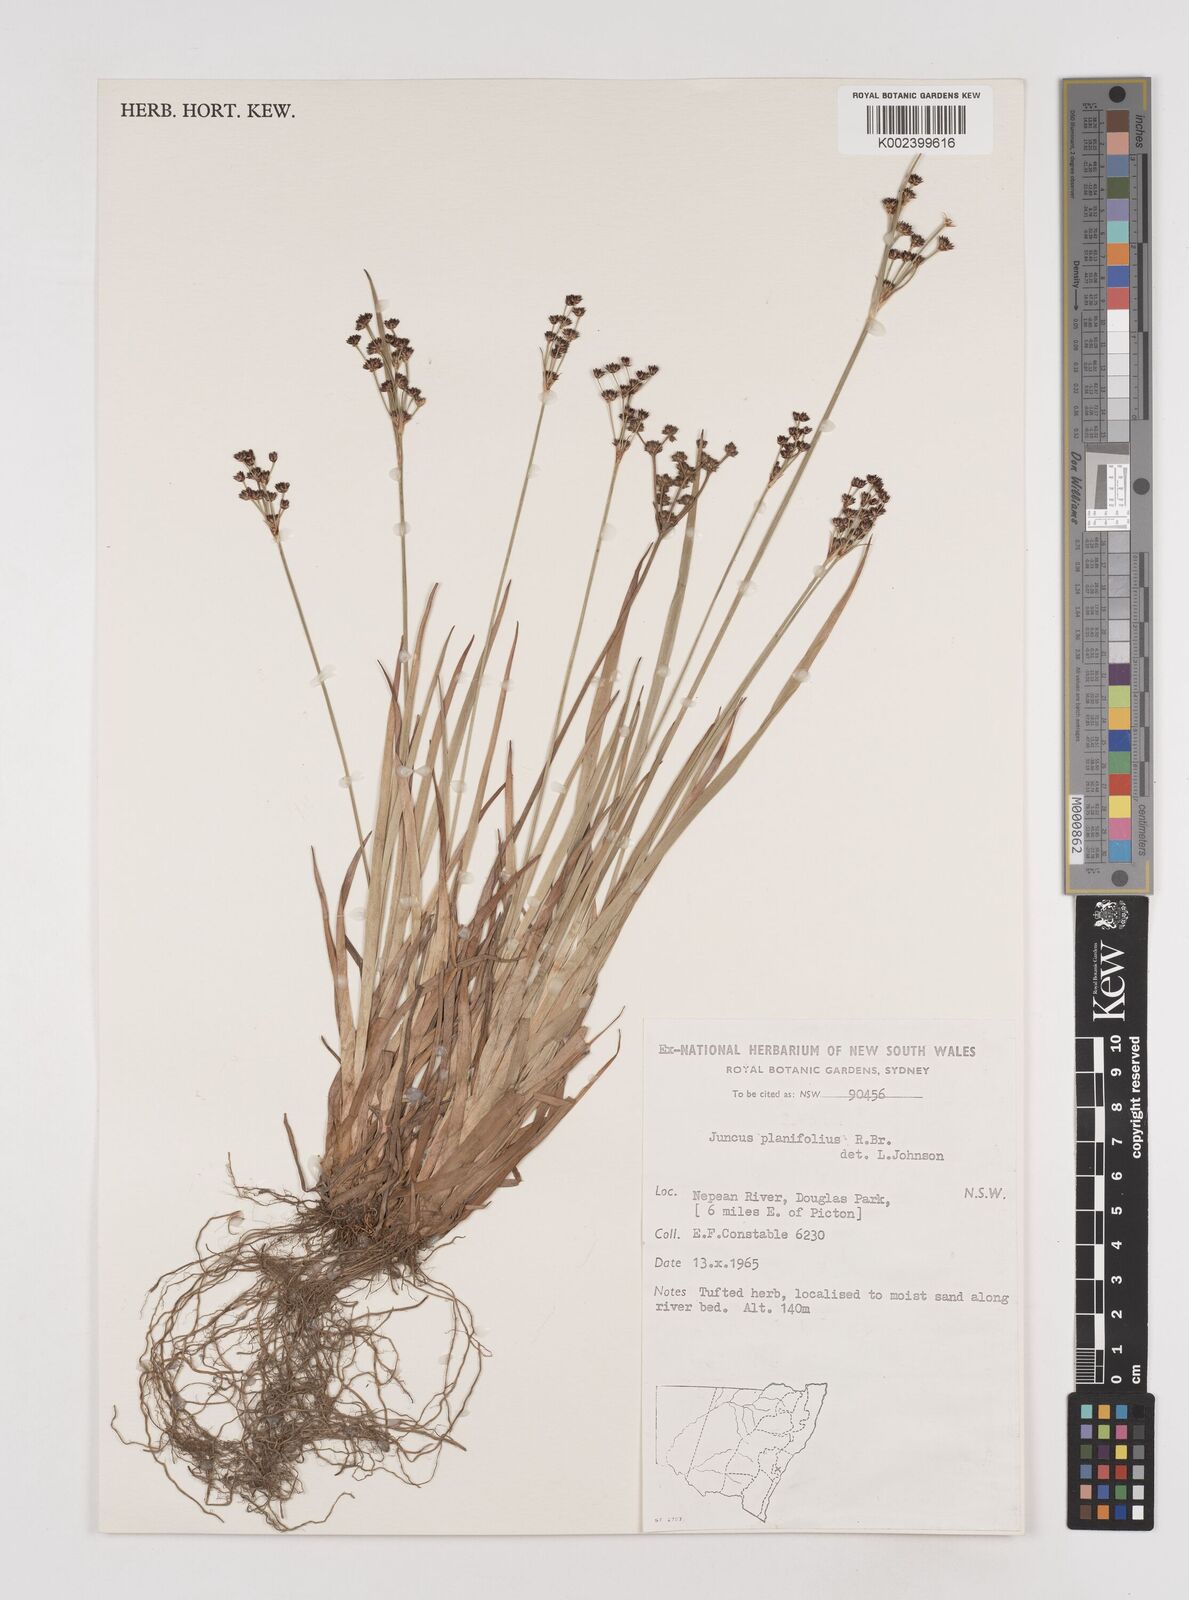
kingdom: Plantae
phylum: Tracheophyta
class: Liliopsida
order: Poales
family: Juncaceae
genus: Juncus
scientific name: Juncus planifolius
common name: Broadleaf rush
